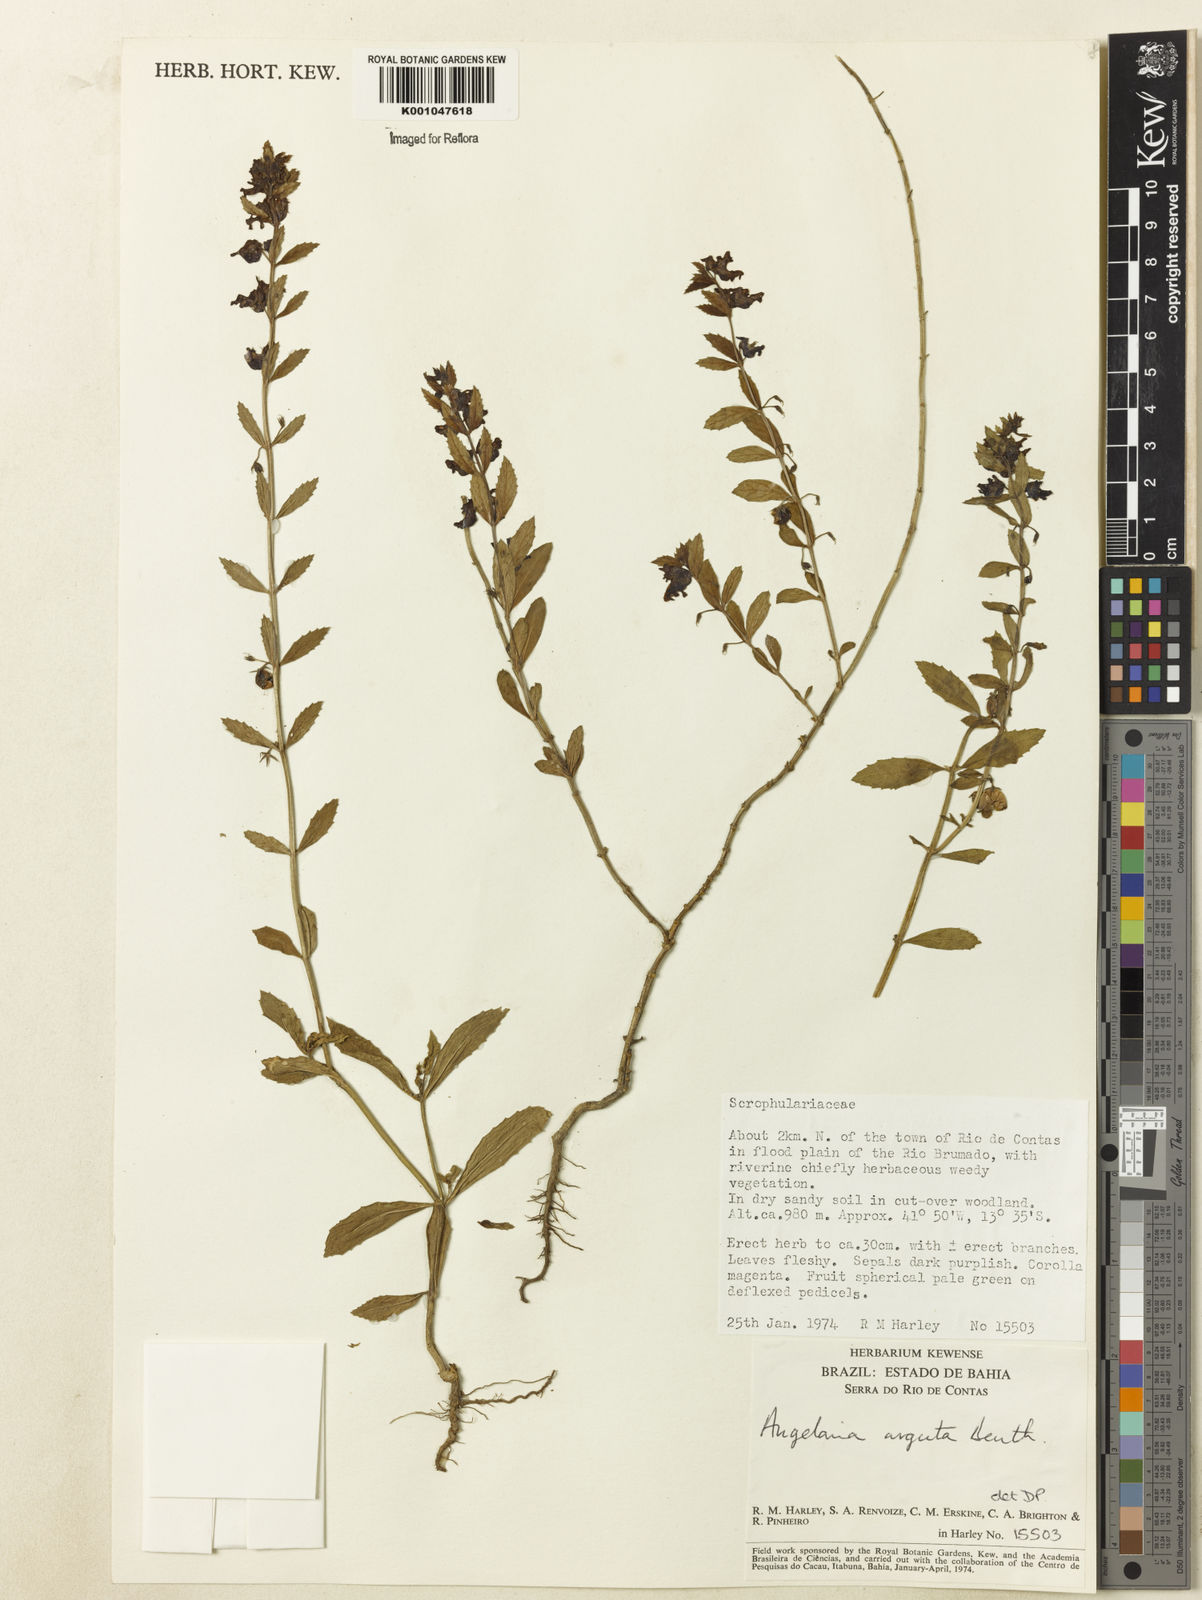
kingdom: Plantae
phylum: Tracheophyta
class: Magnoliopsida
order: Lamiales
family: Plantaginaceae
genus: Angelonia
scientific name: Angelonia arguta
